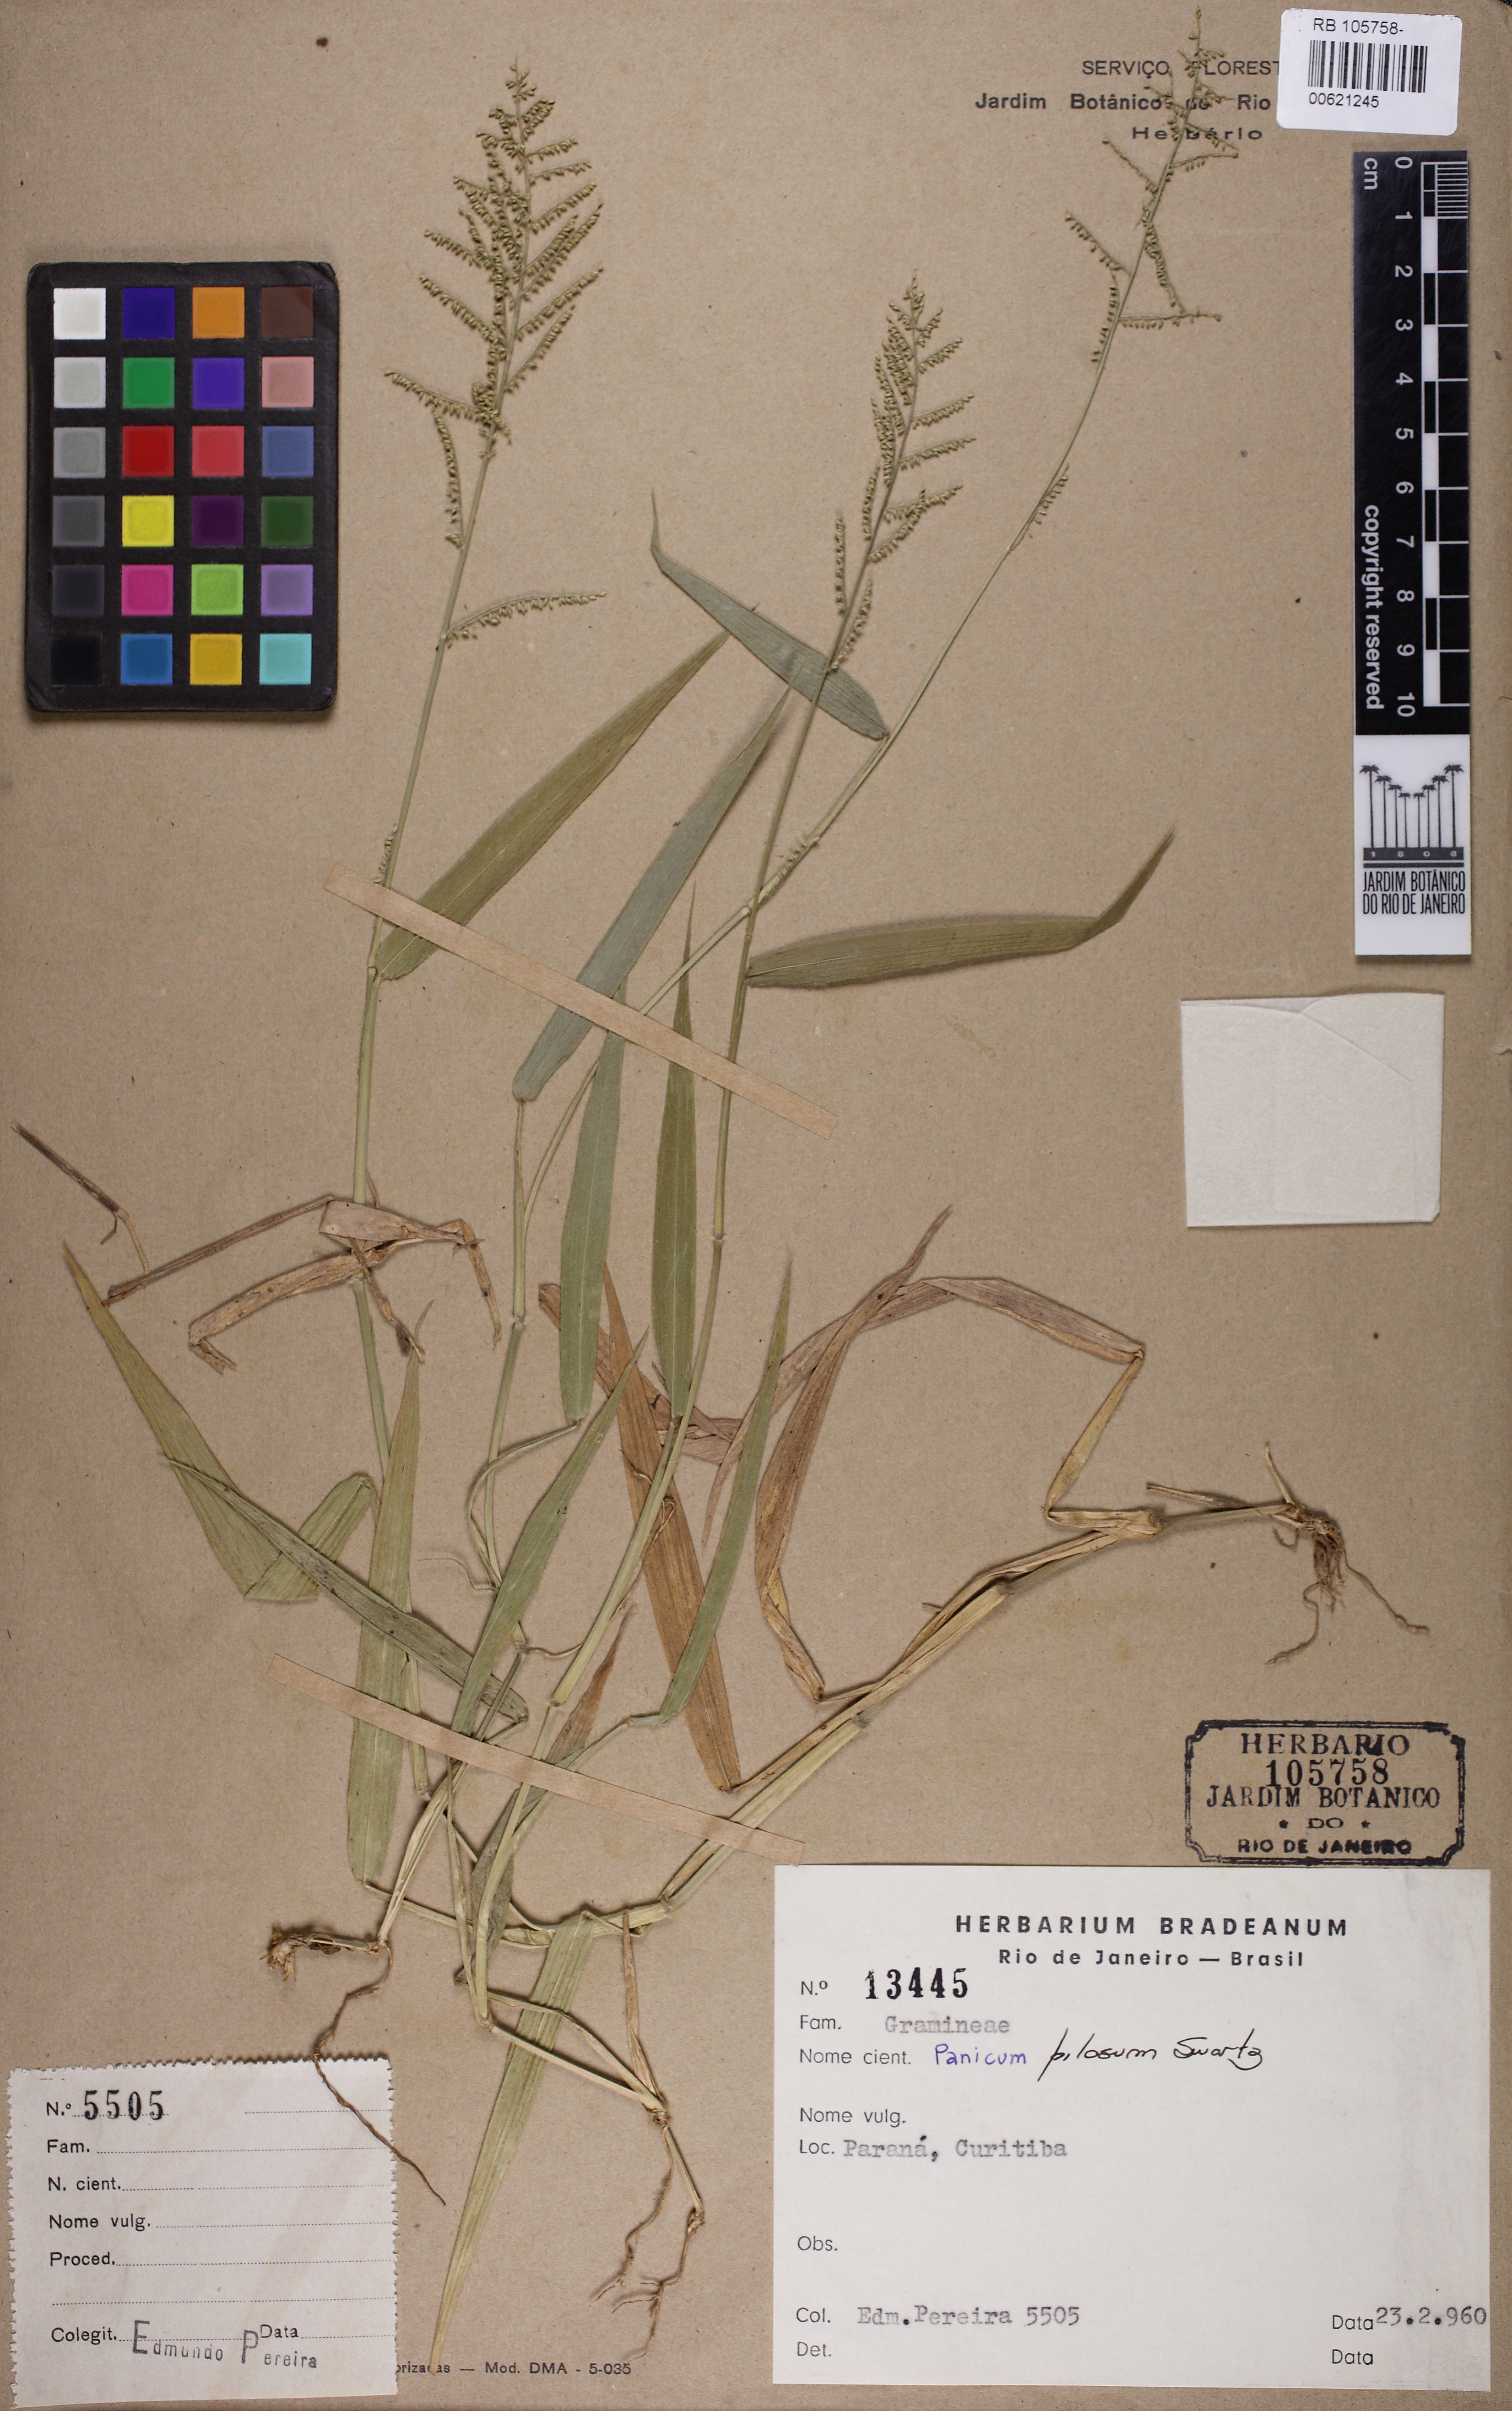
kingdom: Plantae
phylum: Tracheophyta
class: Liliopsida
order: Poales
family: Poaceae
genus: Rugoloa
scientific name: Rugoloa pilosa
